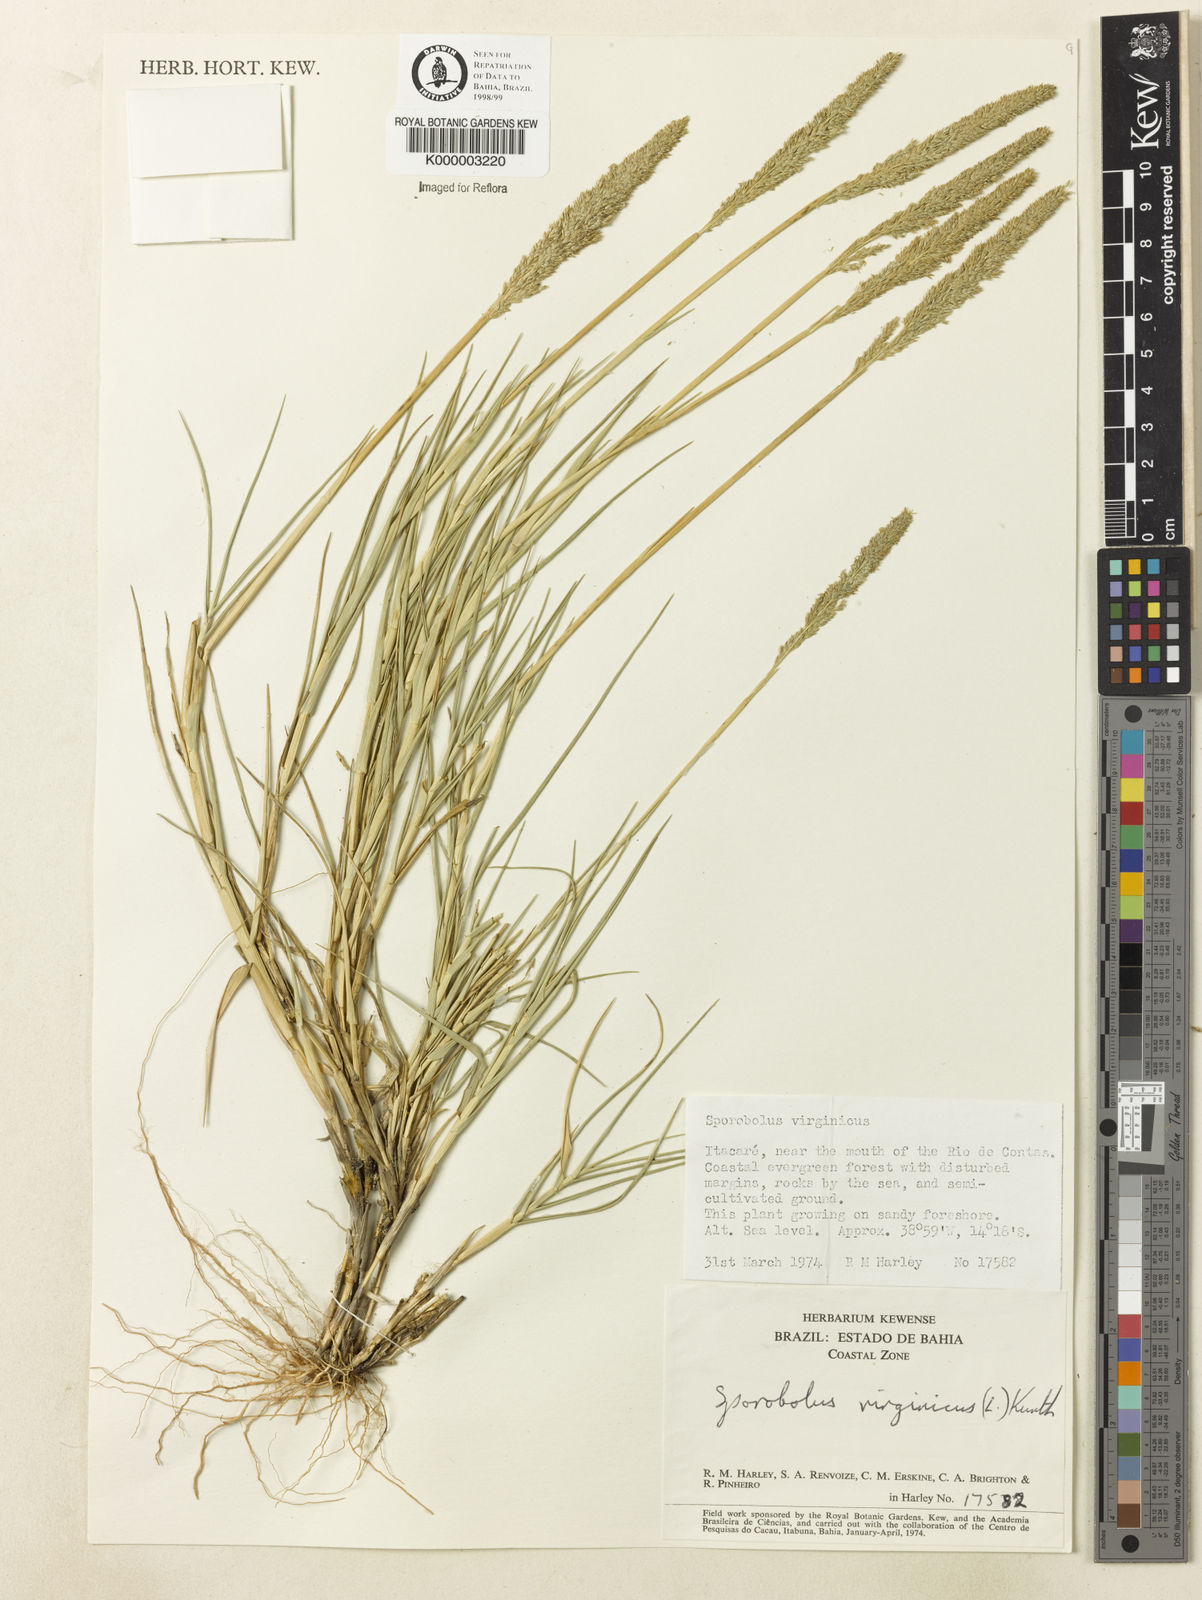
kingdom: Plantae
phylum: Tracheophyta
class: Liliopsida
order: Poales
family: Poaceae
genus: Sporobolus
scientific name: Sporobolus virginicus
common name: Beach dropseed
